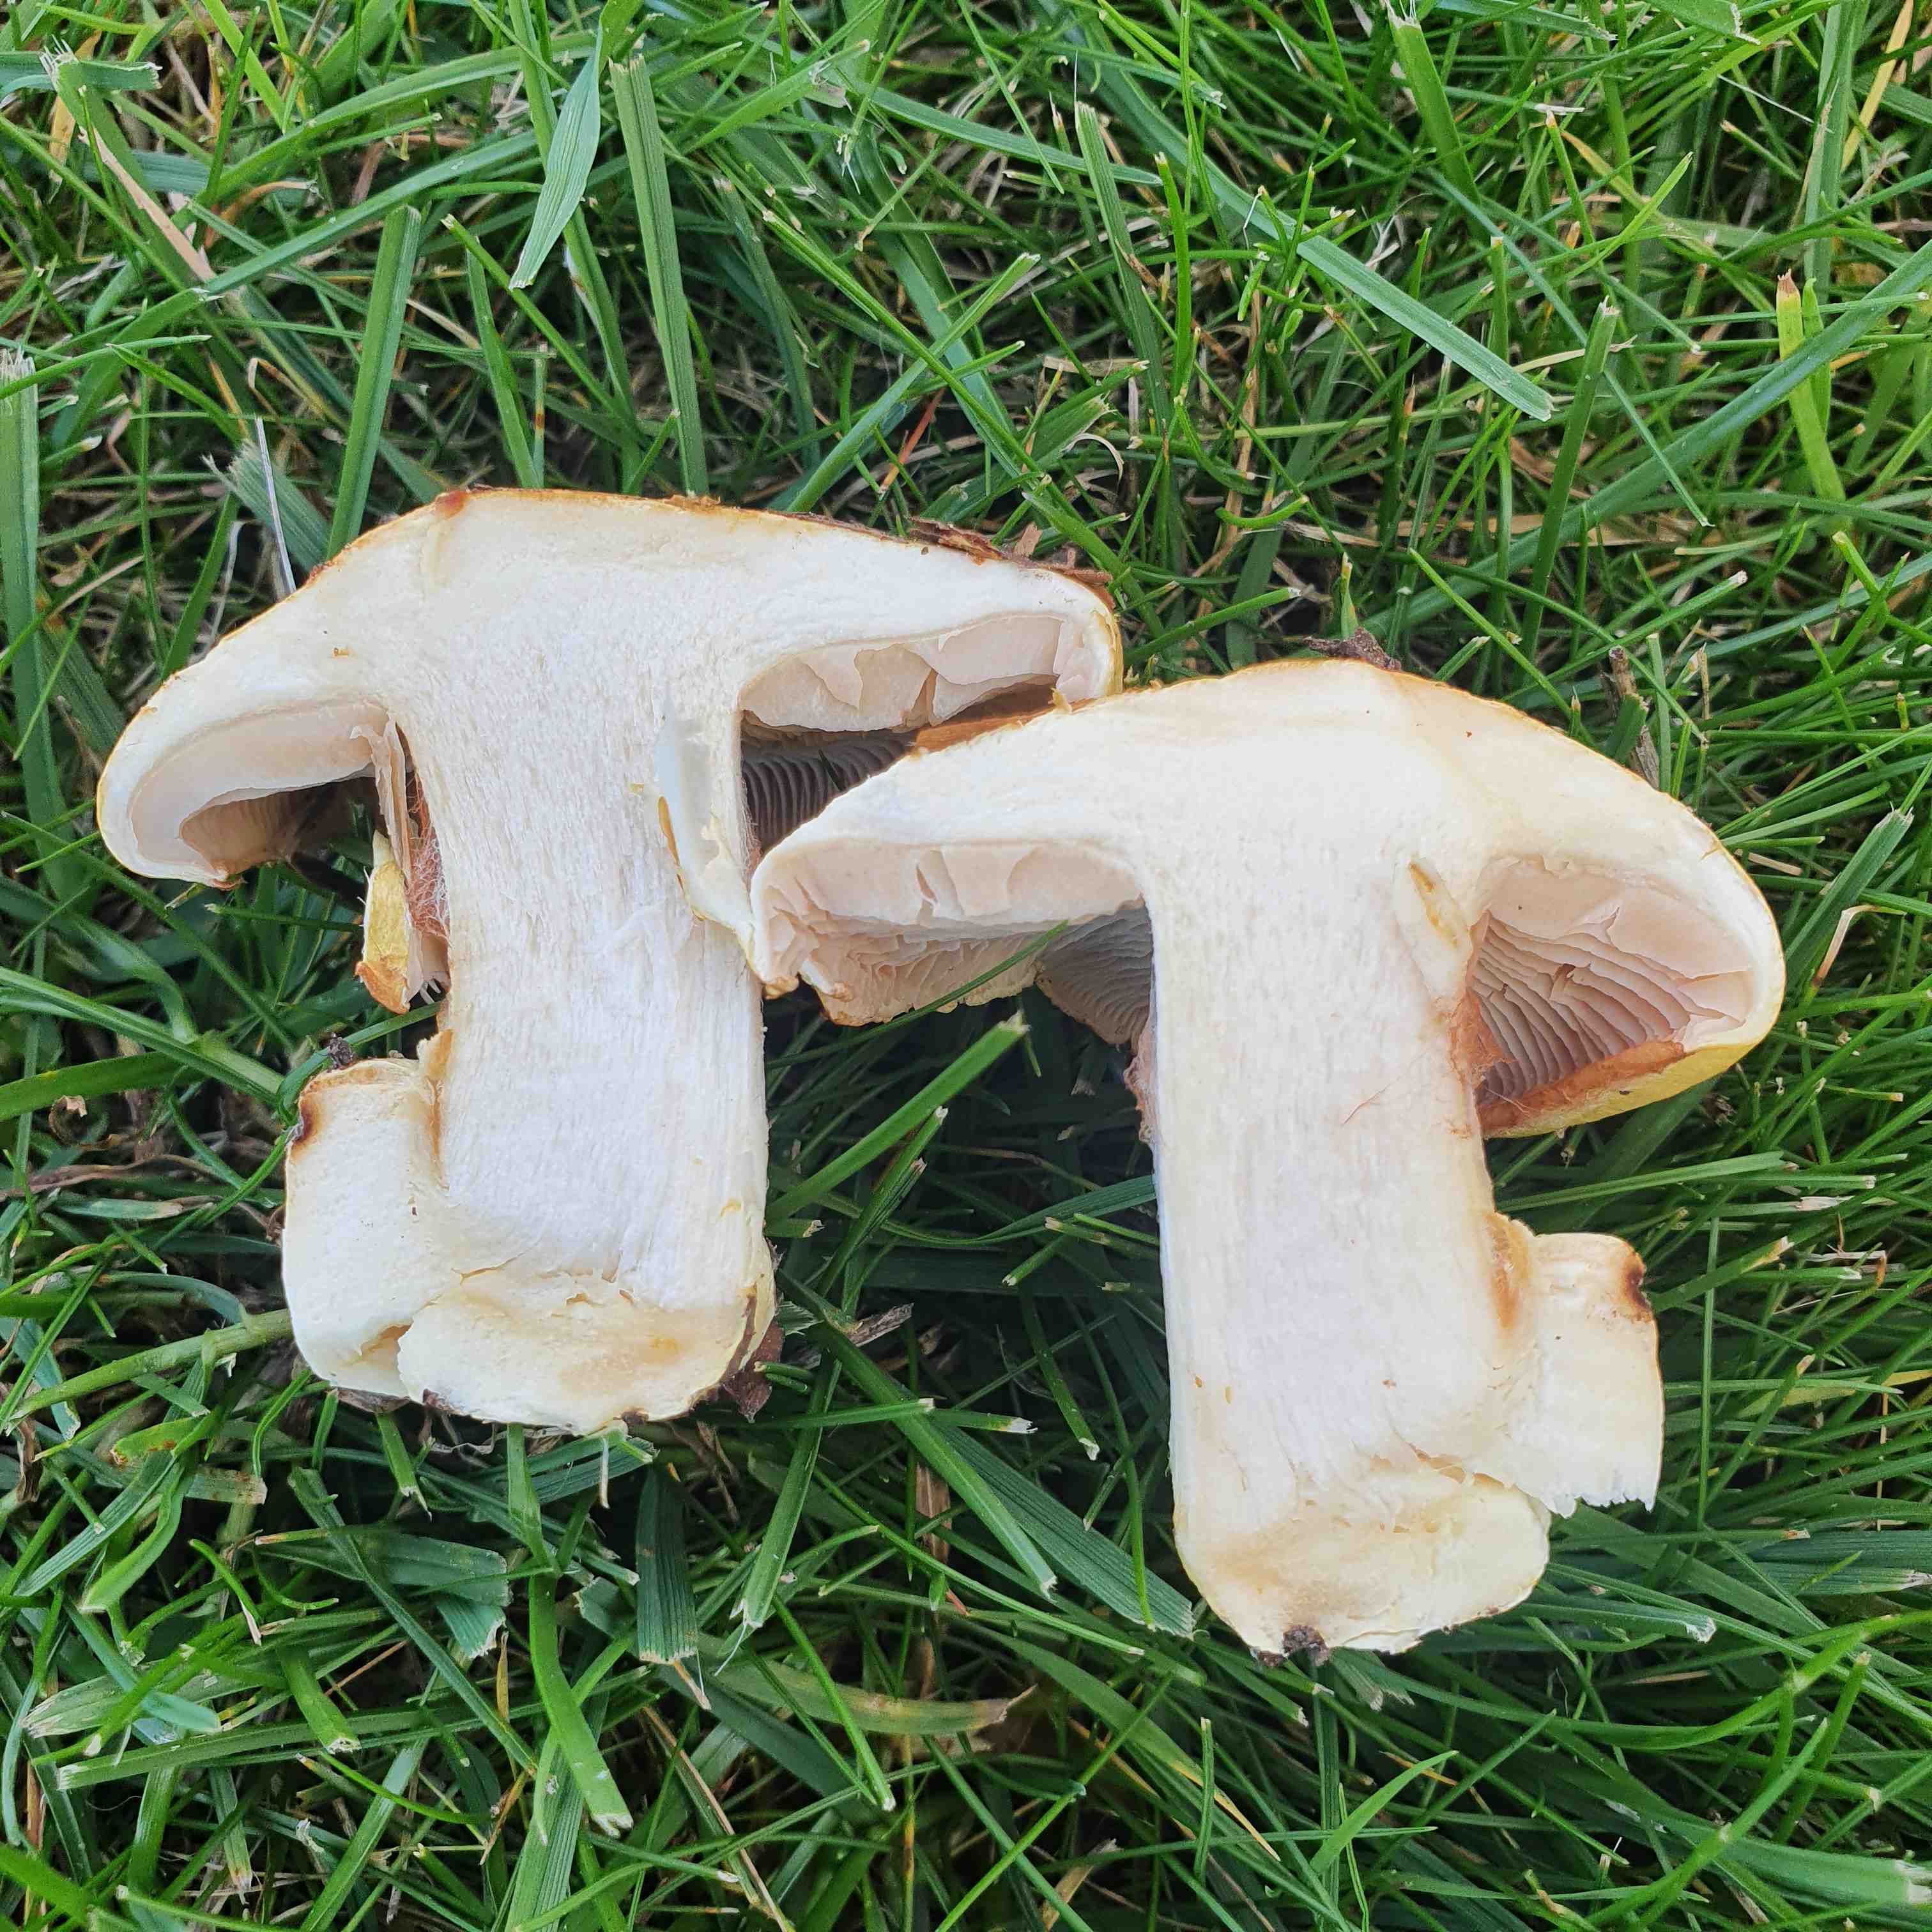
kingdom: Fungi
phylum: Basidiomycota
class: Agaricomycetes
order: Agaricales
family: Cortinariaceae
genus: Phlegmacium
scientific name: Phlegmacium caesiocortinatum
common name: rundsporet slørhat
